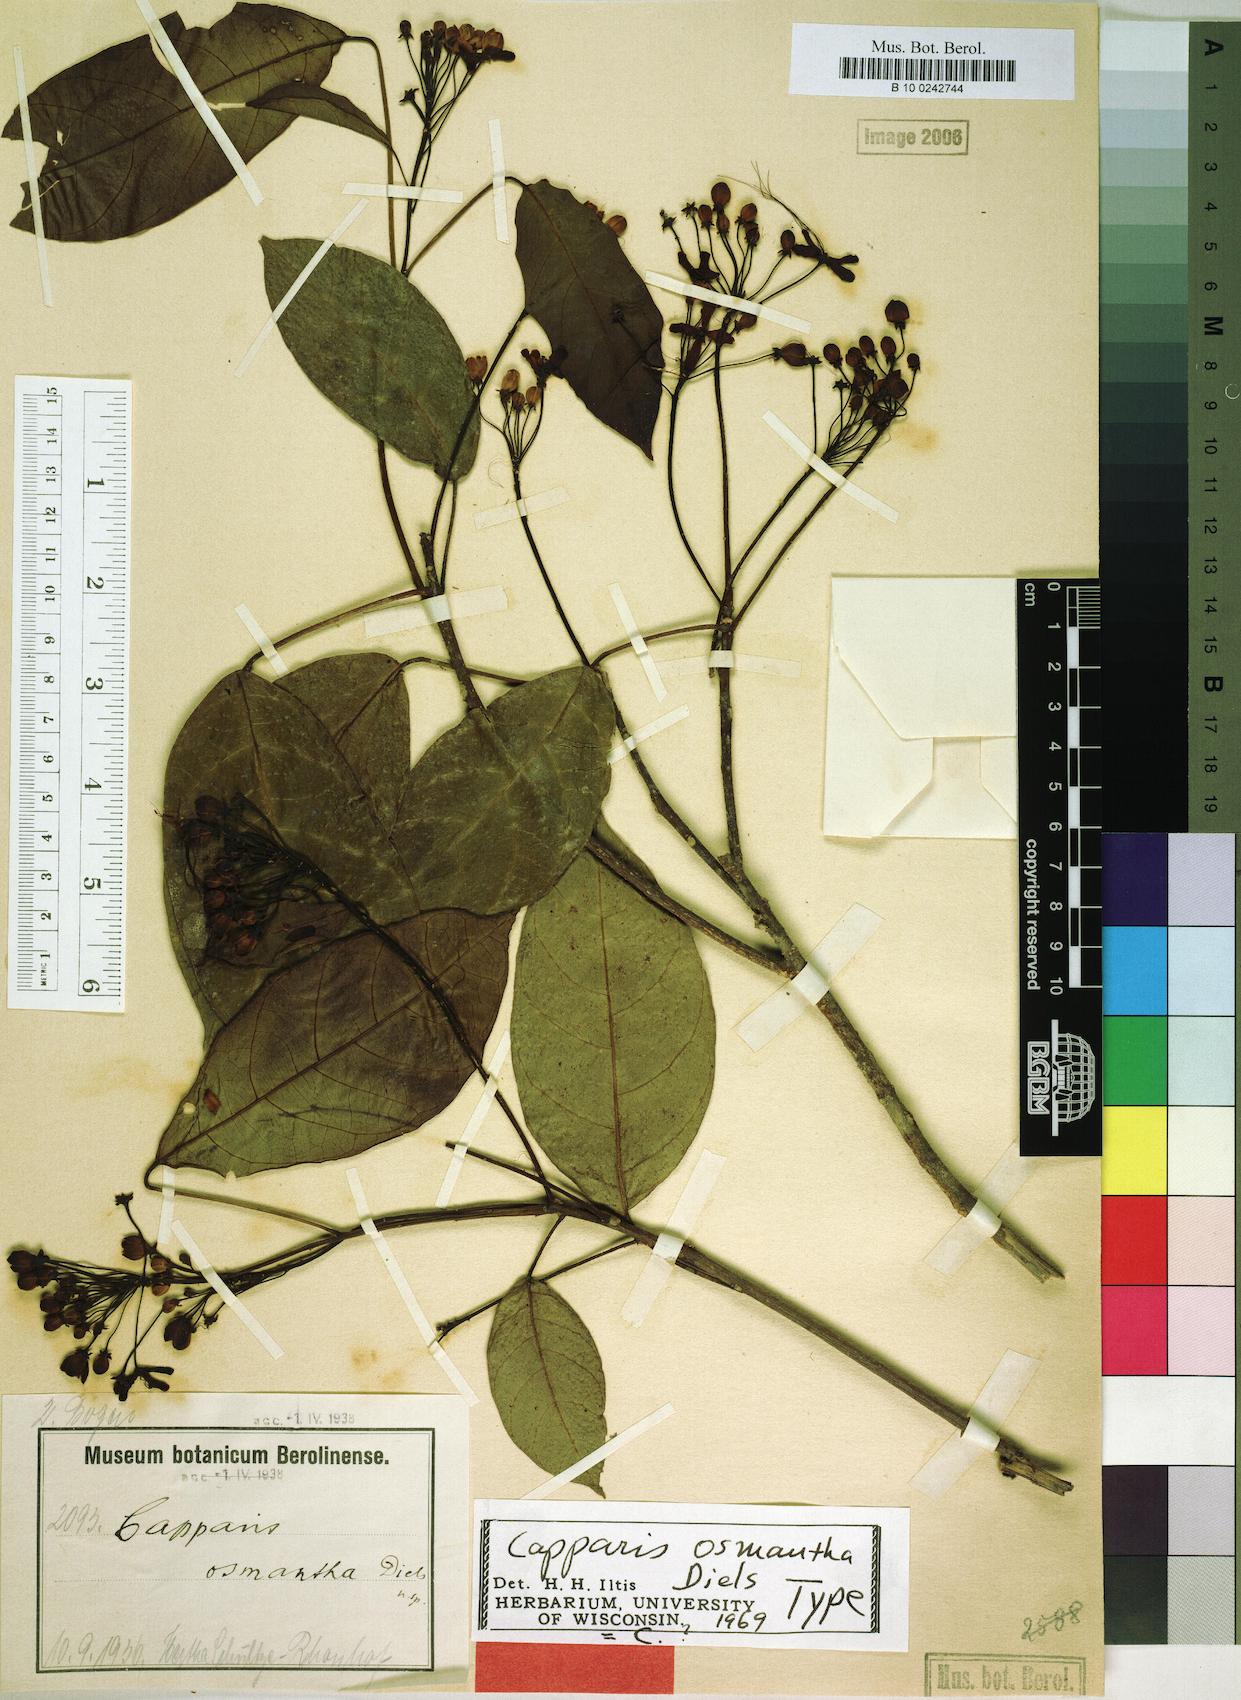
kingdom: Plantae
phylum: Tracheophyta
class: Magnoliopsida
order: Brassicales
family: Capparaceae
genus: Capparidastrum
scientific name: Capparidastrum osmanthum
